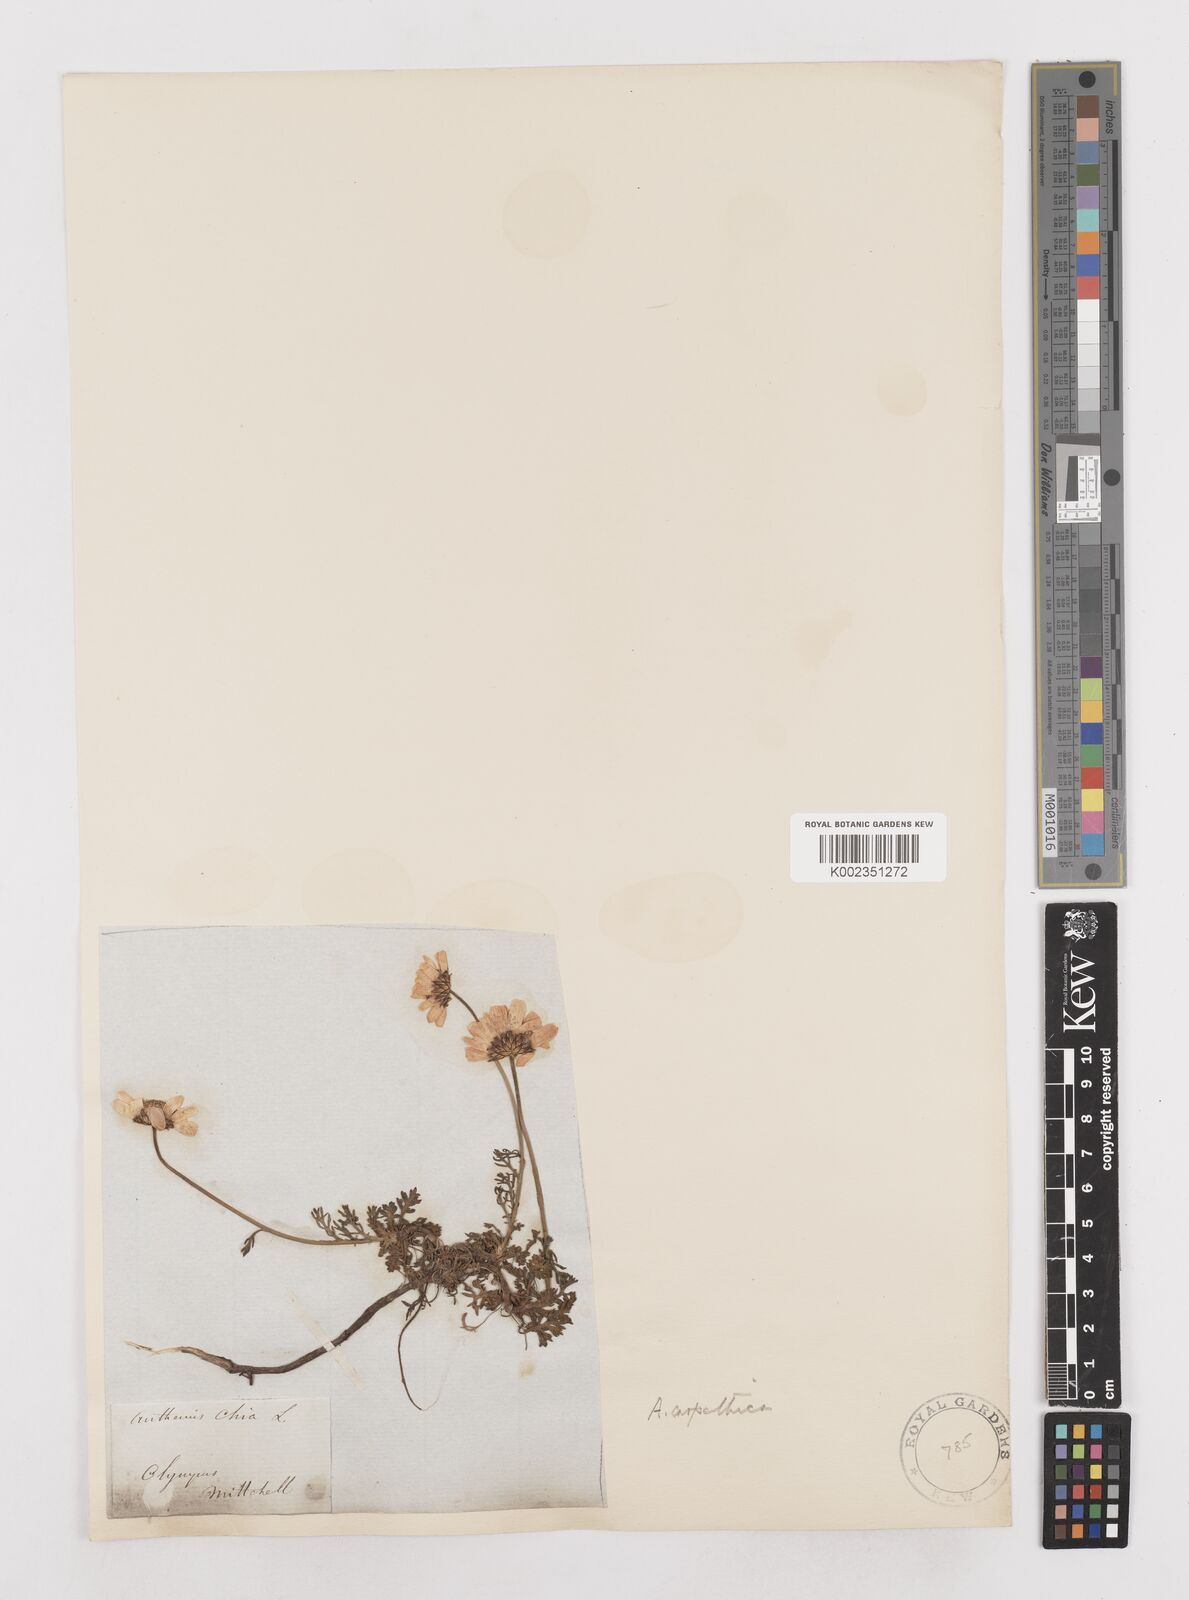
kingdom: Plantae
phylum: Tracheophyta
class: Magnoliopsida
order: Asterales
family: Asteraceae
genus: Anthemis
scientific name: Anthemis cretica
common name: Mountain dog-daisy
